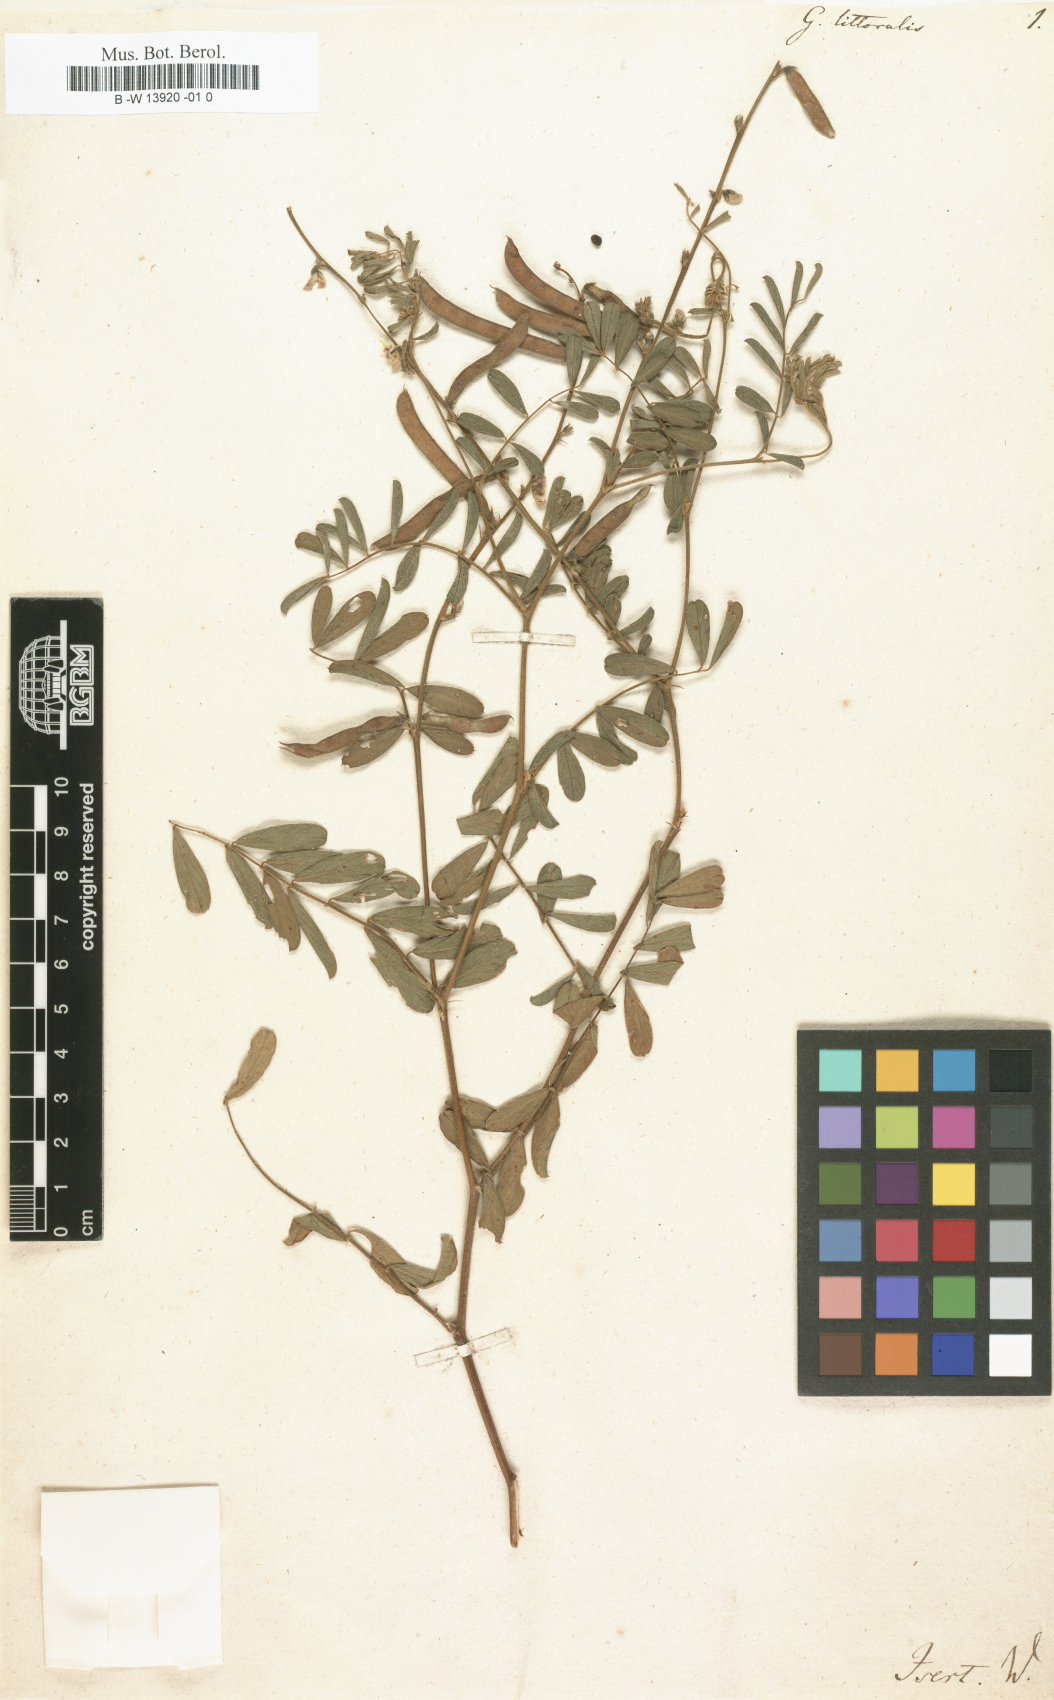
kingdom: Plantae
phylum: Tracheophyta
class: Magnoliopsida
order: Fabales
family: Fabaceae
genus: Tephrosia
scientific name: Tephrosia purpurea
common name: Fishpoison
